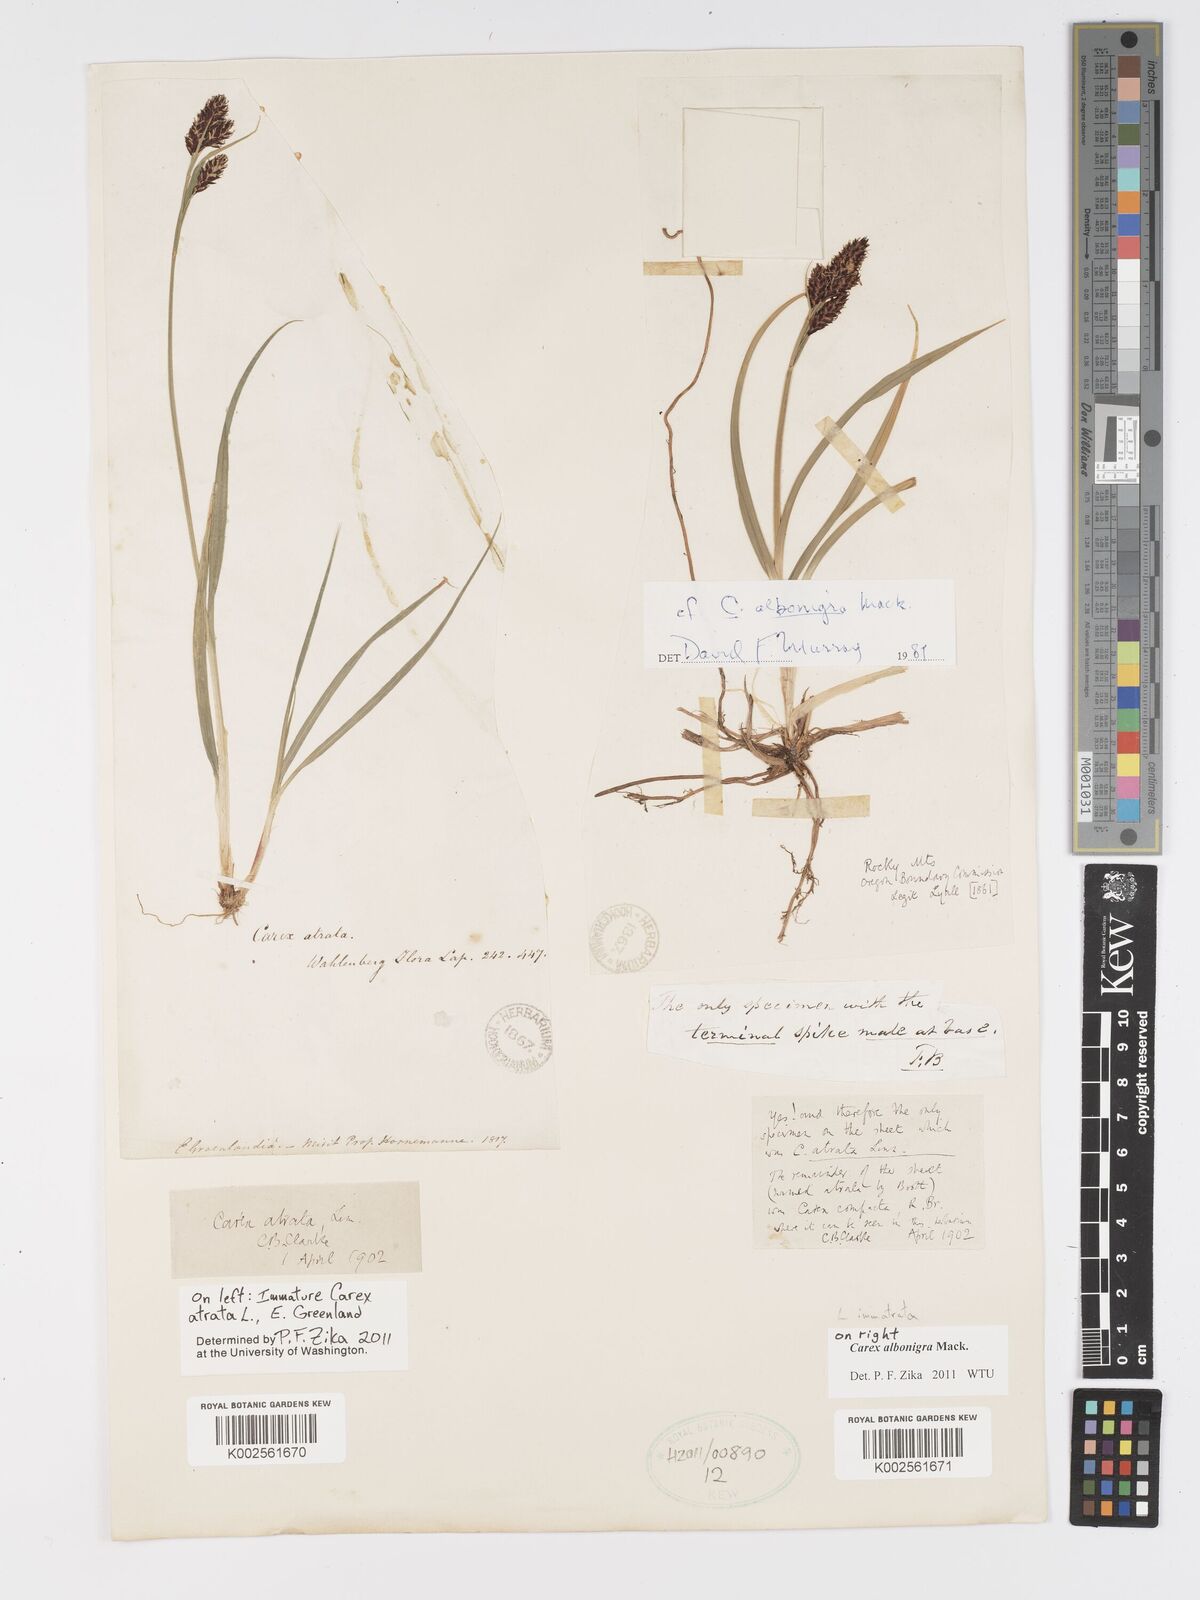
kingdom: Plantae
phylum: Tracheophyta
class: Liliopsida
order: Poales
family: Cyperaceae
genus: Carex
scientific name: Carex albonigra
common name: Black-and-white sedge
